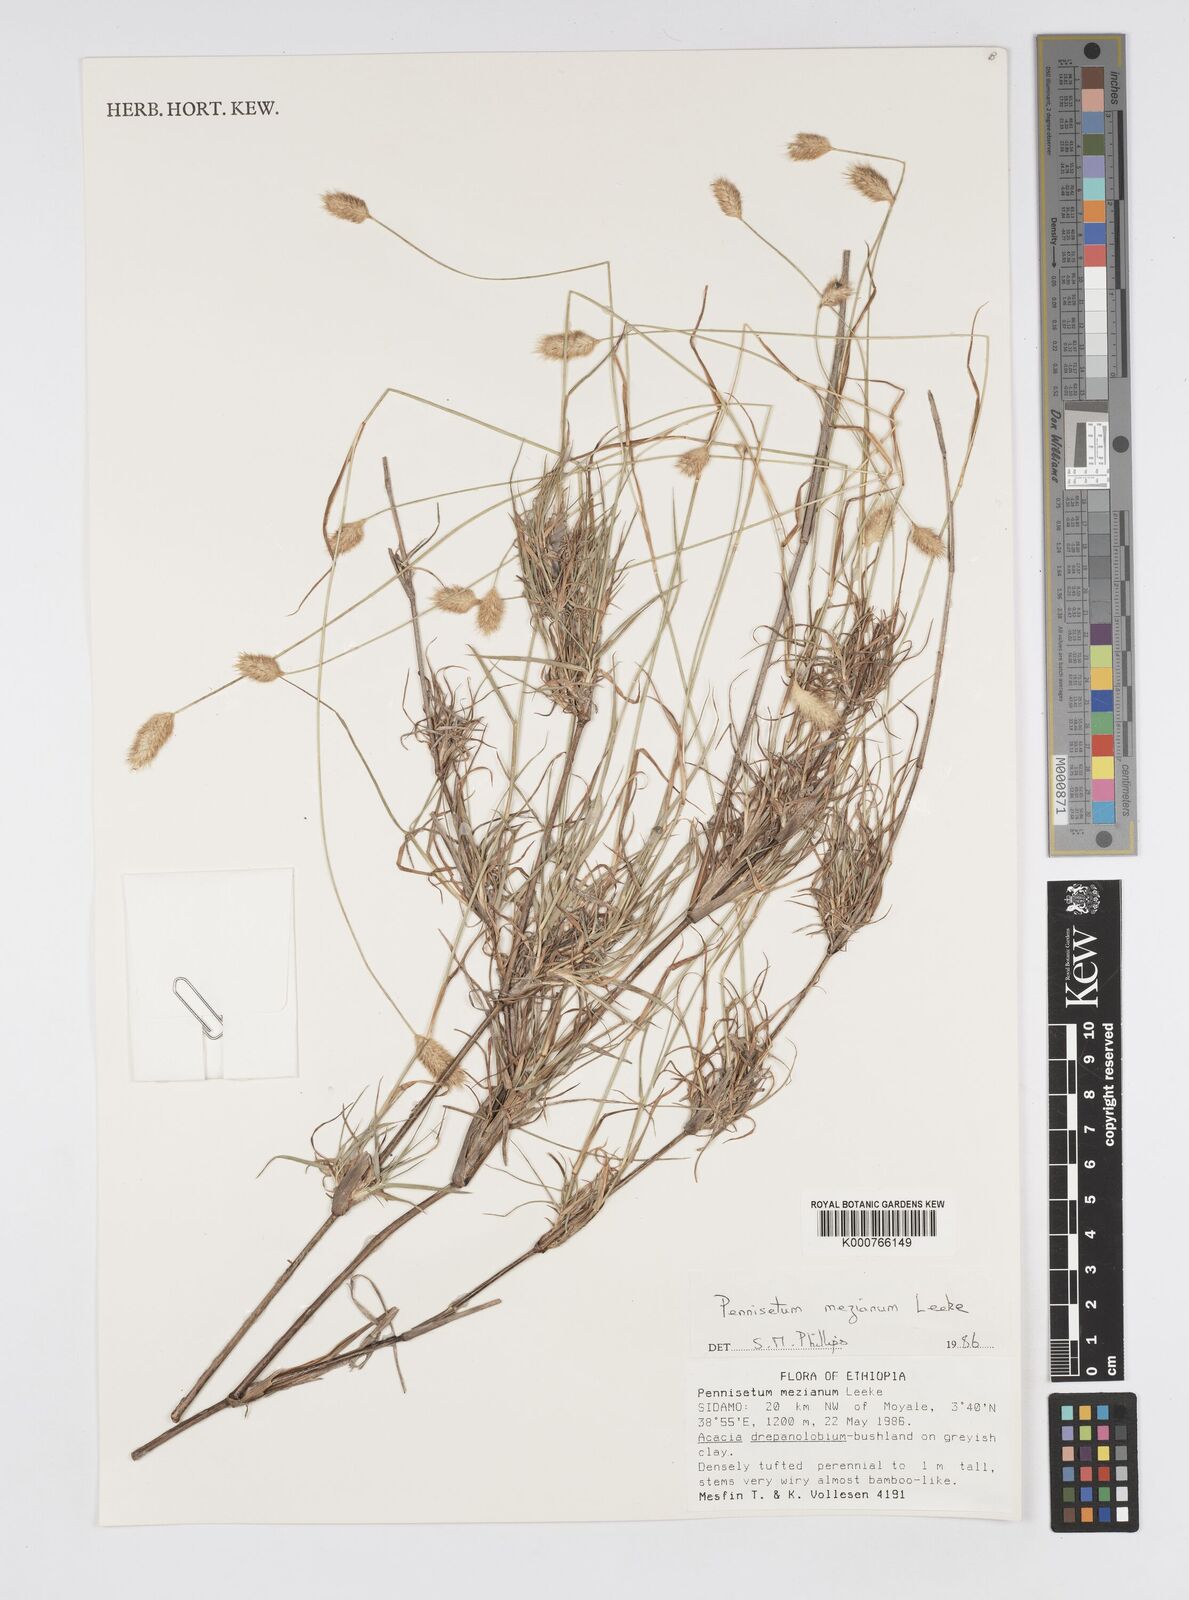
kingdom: Plantae
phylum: Tracheophyta
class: Liliopsida
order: Poales
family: Poaceae
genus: Cenchrus
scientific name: Cenchrus mezianus
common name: Bamboo grass
